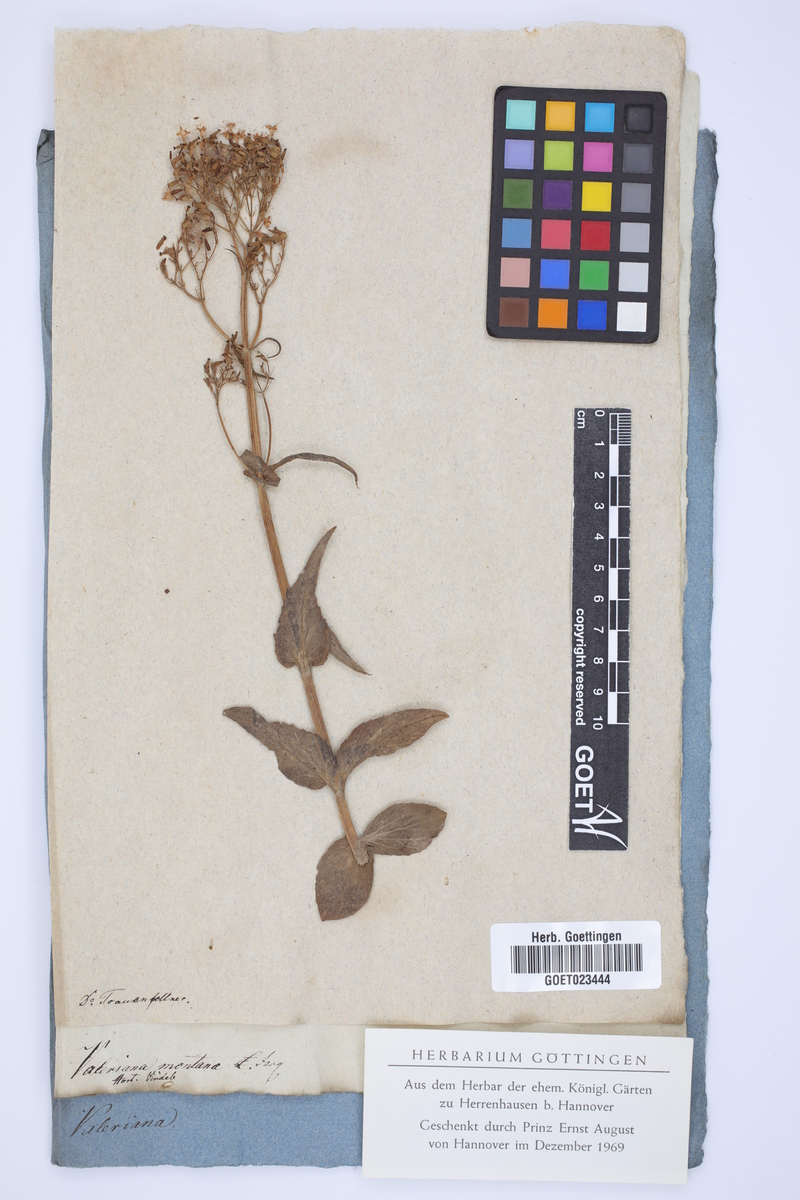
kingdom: Plantae
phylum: Tracheophyta
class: Magnoliopsida
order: Dipsacales
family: Caprifoliaceae
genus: Valeriana
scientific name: Valeriana montana
